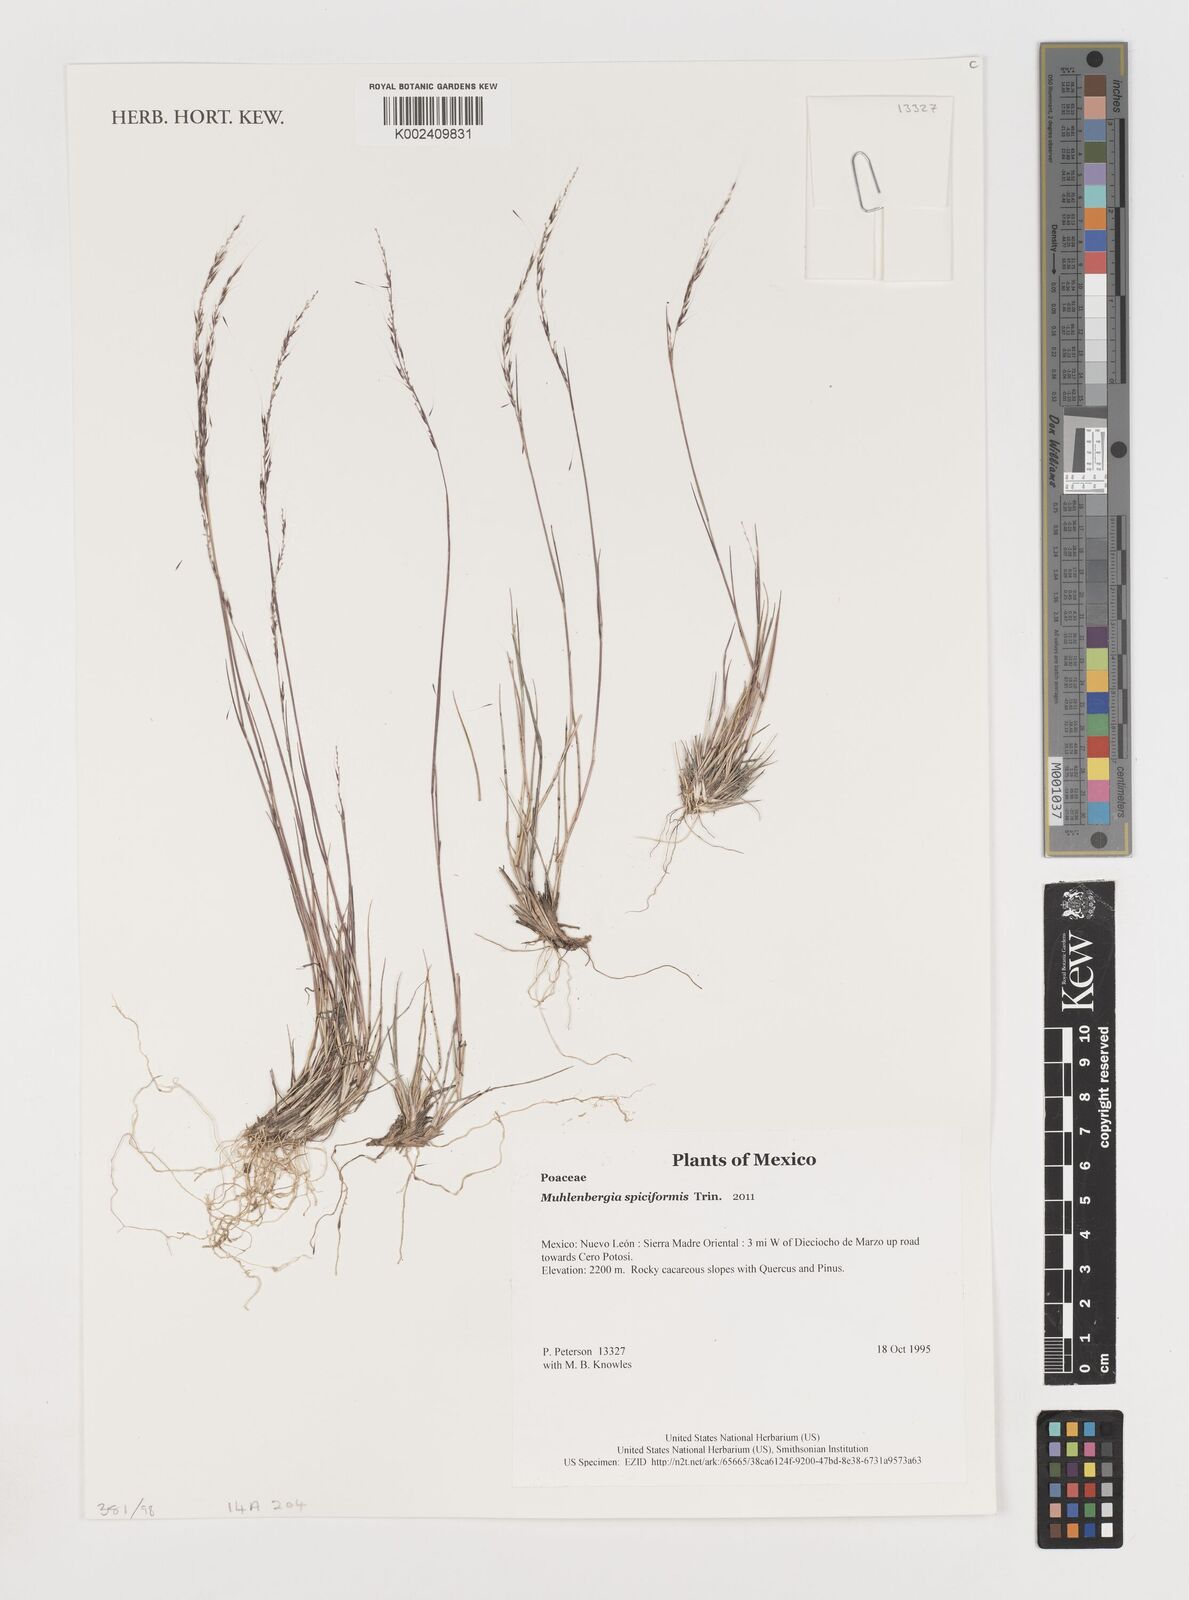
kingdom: Plantae
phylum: Tracheophyta
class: Liliopsida
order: Poales
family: Poaceae
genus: Muhlenbergia
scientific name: Muhlenbergia spiciformis
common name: Longawn muhly
